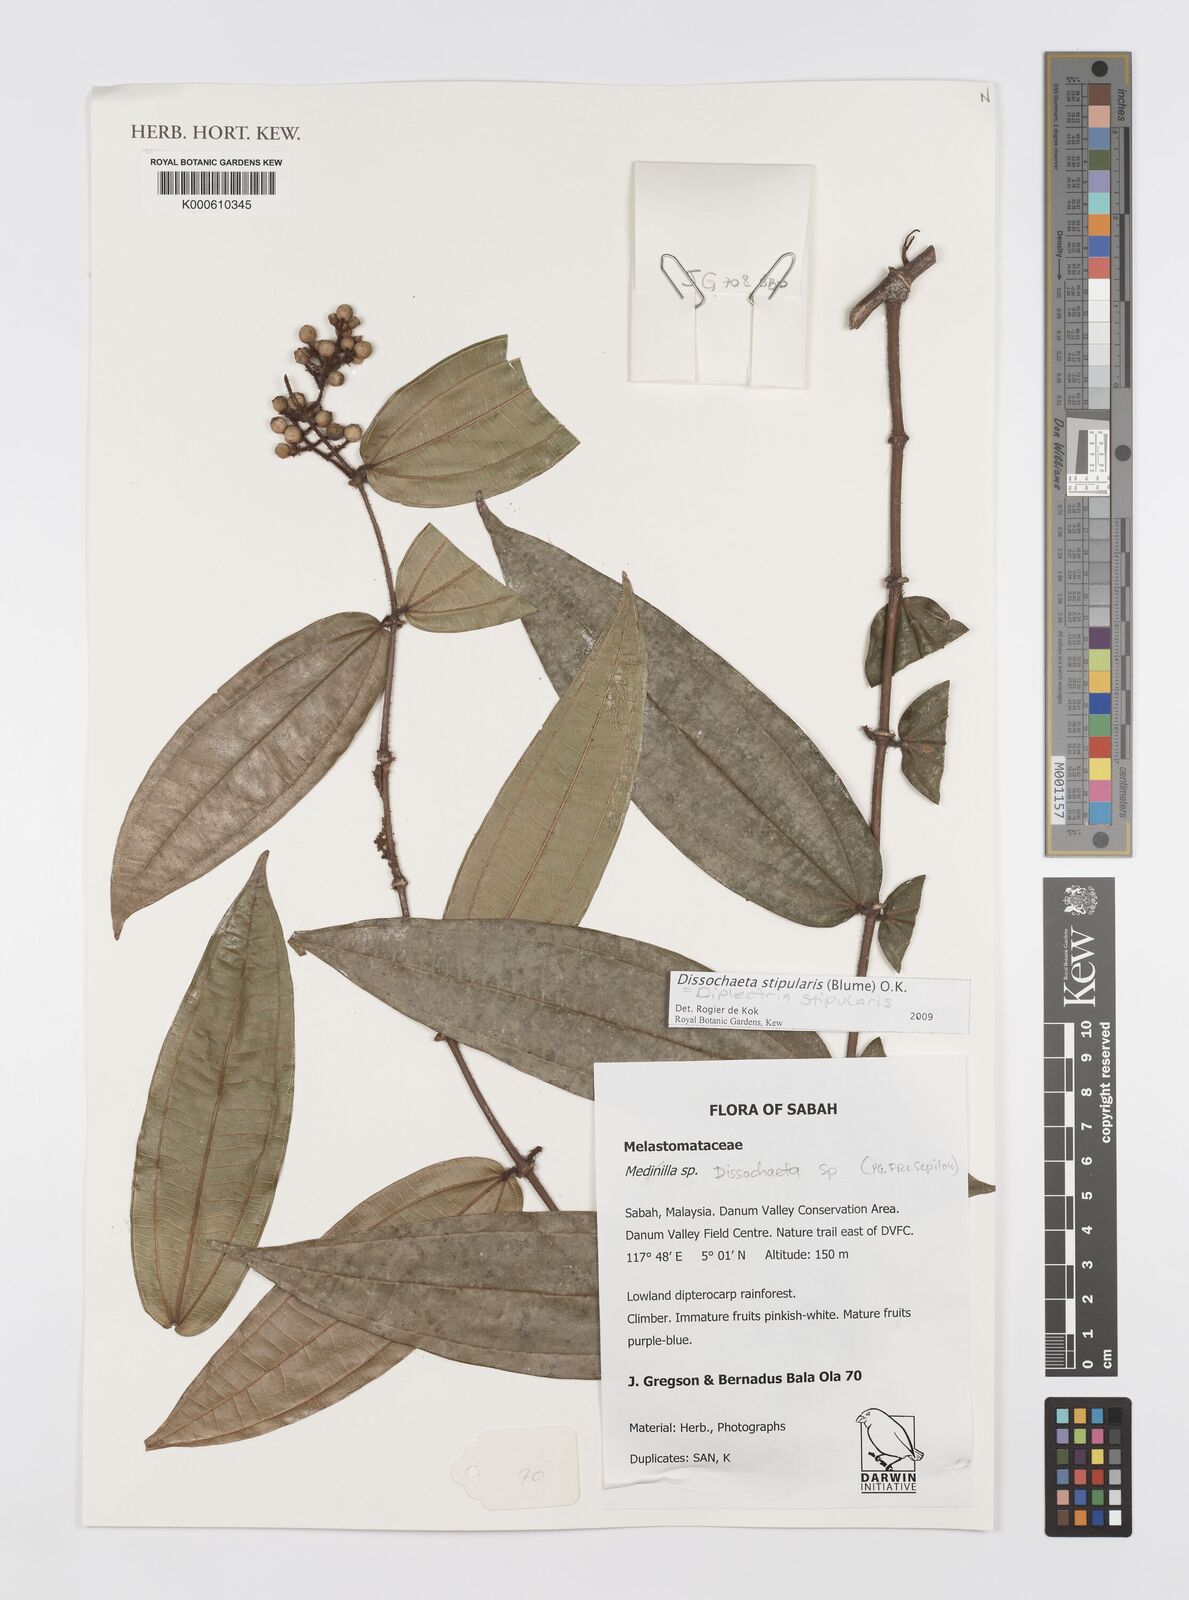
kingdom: Plantae
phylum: Tracheophyta
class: Magnoliopsida
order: Myrtales
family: Melastomataceae
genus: Dissochaeta
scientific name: Dissochaeta
